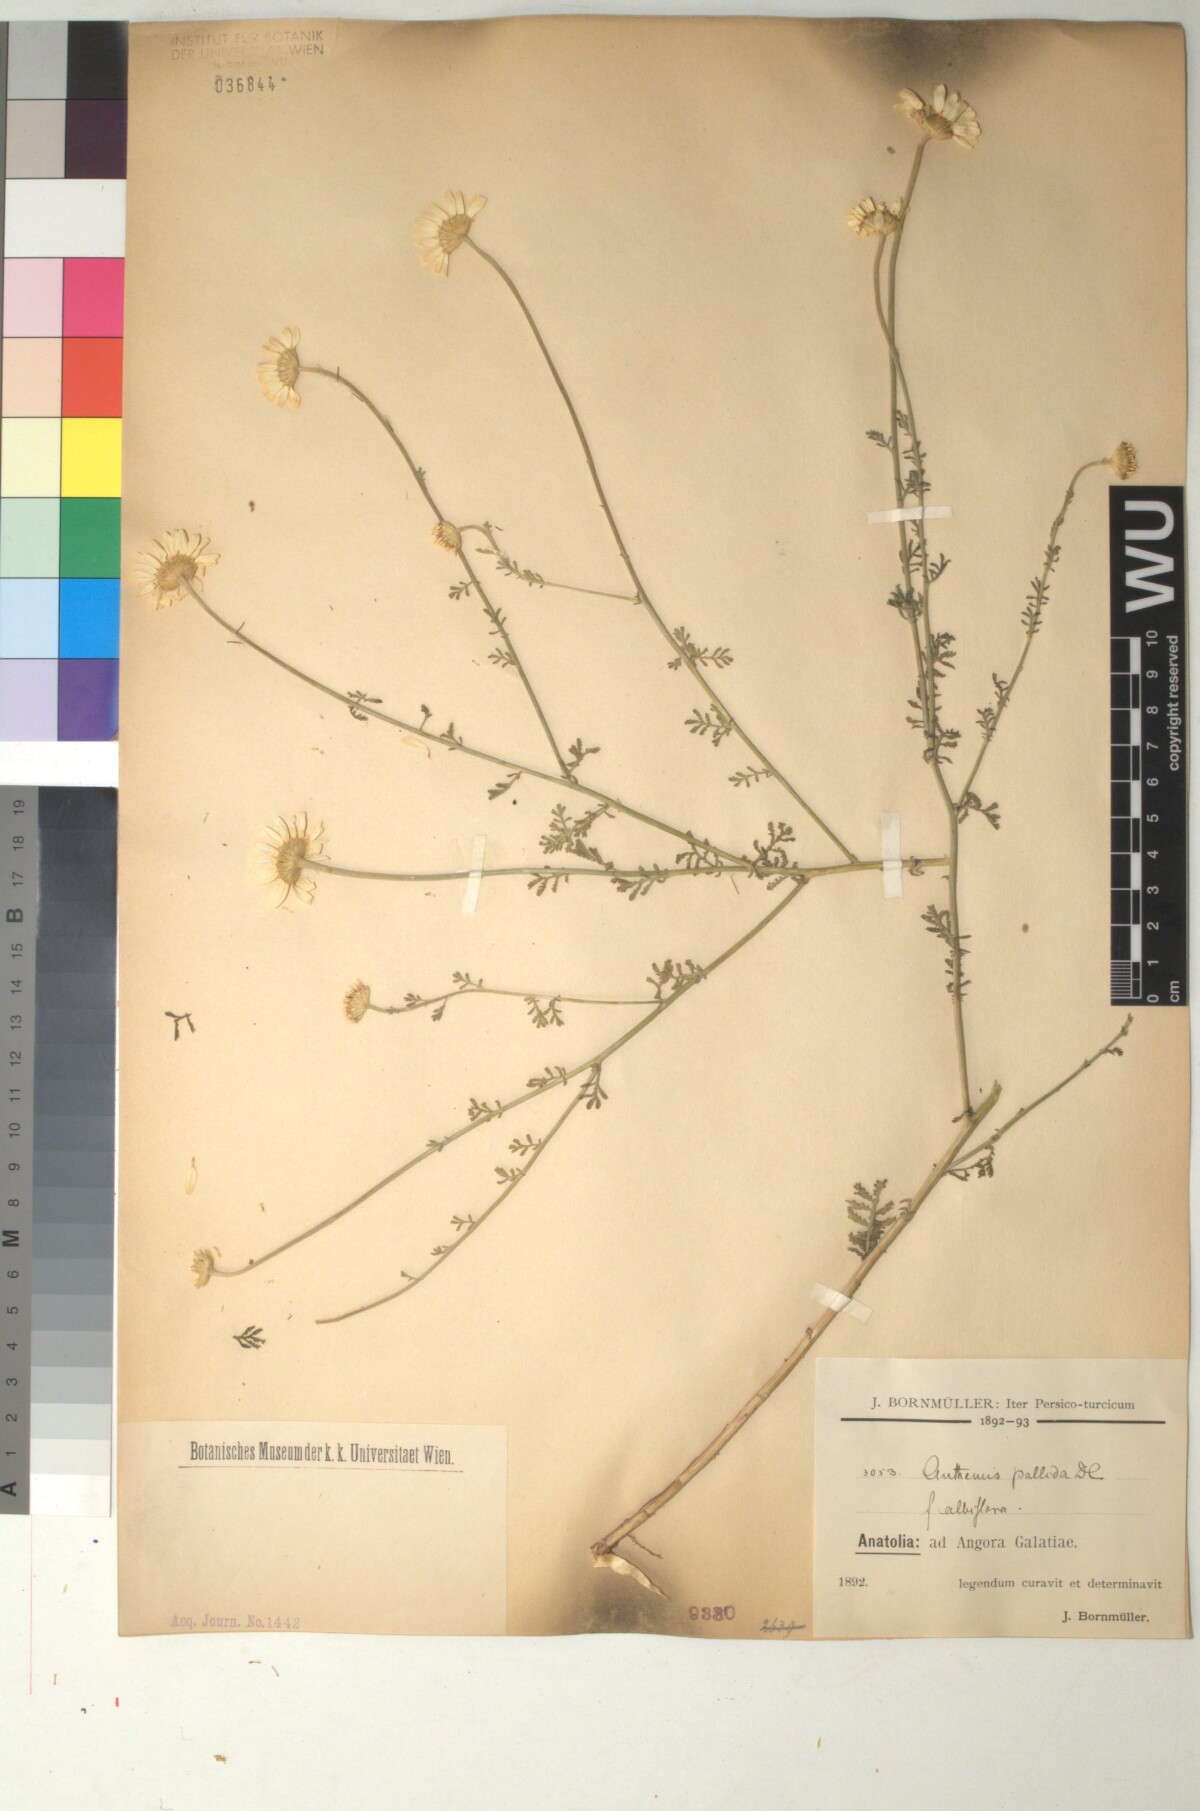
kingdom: Plantae
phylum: Tracheophyta
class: Magnoliopsida
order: Asterales
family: Asteraceae
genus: Cota
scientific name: Cota tinctoria
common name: Golden chamomile
